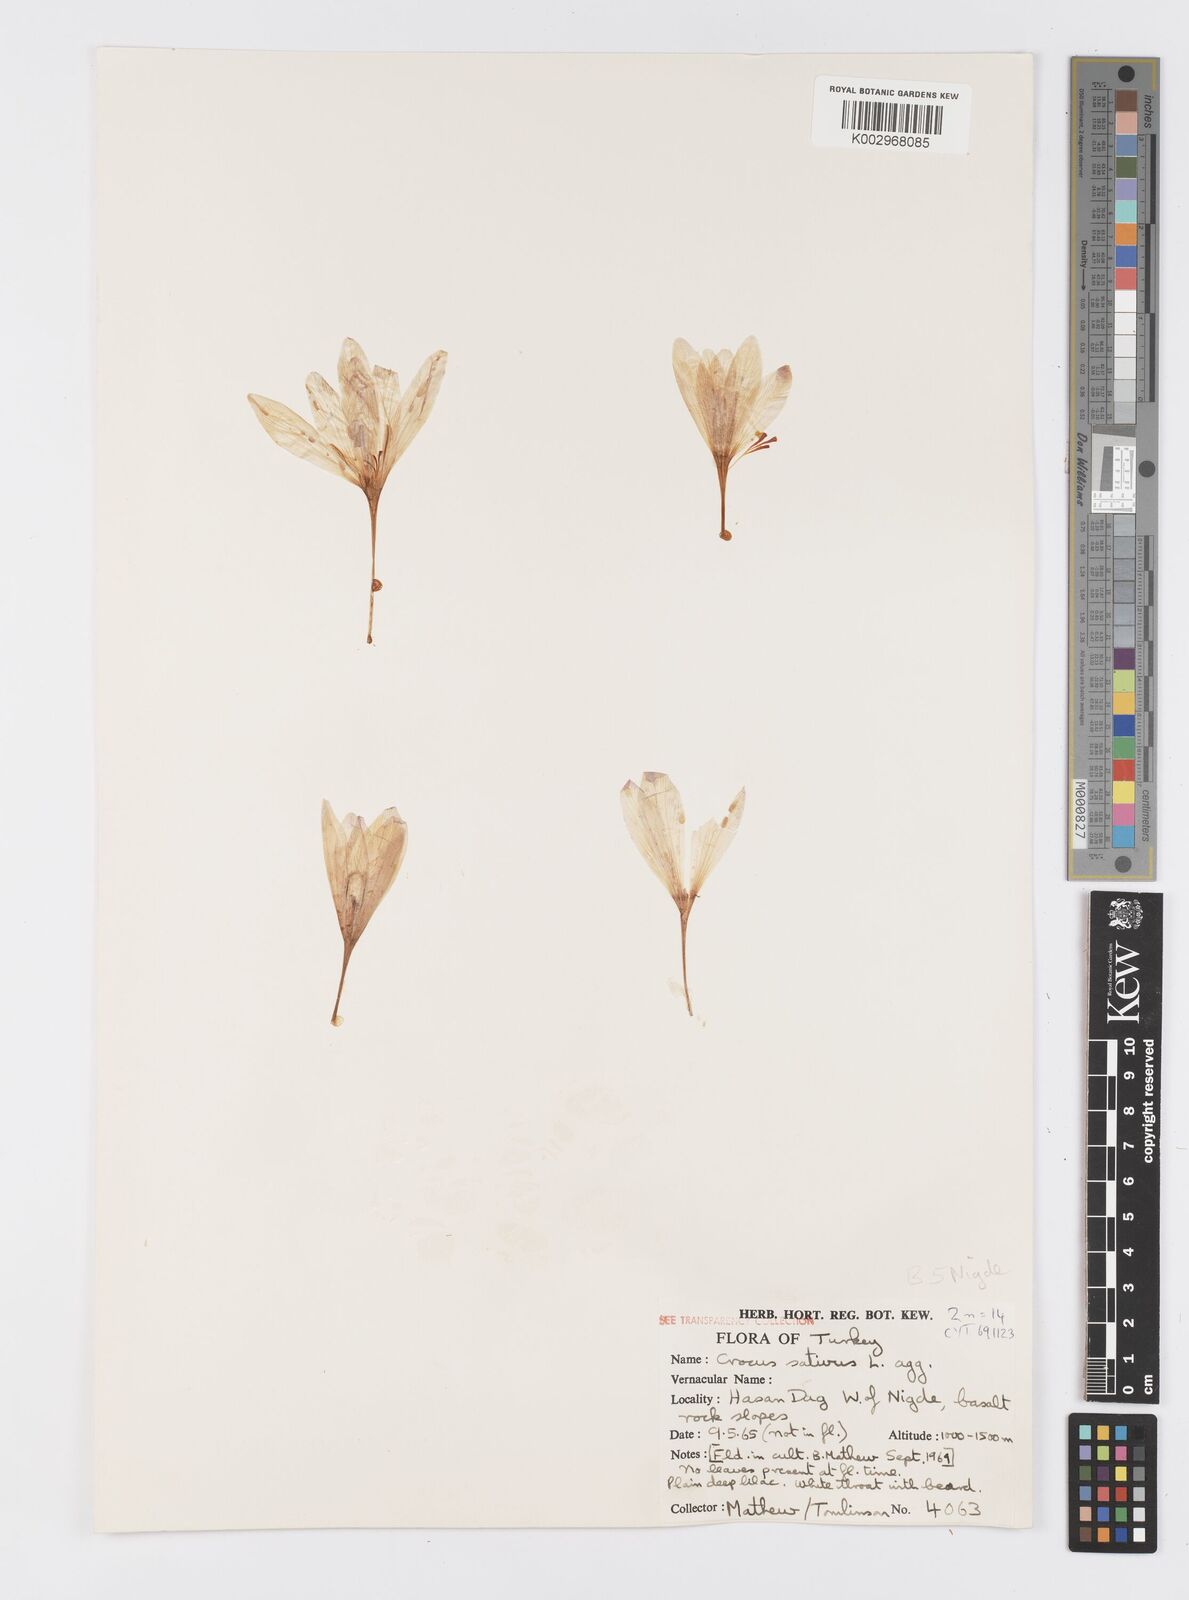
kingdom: Plantae
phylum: Tracheophyta
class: Liliopsida
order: Asparagales
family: Iridaceae
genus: Crocus
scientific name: Crocus
